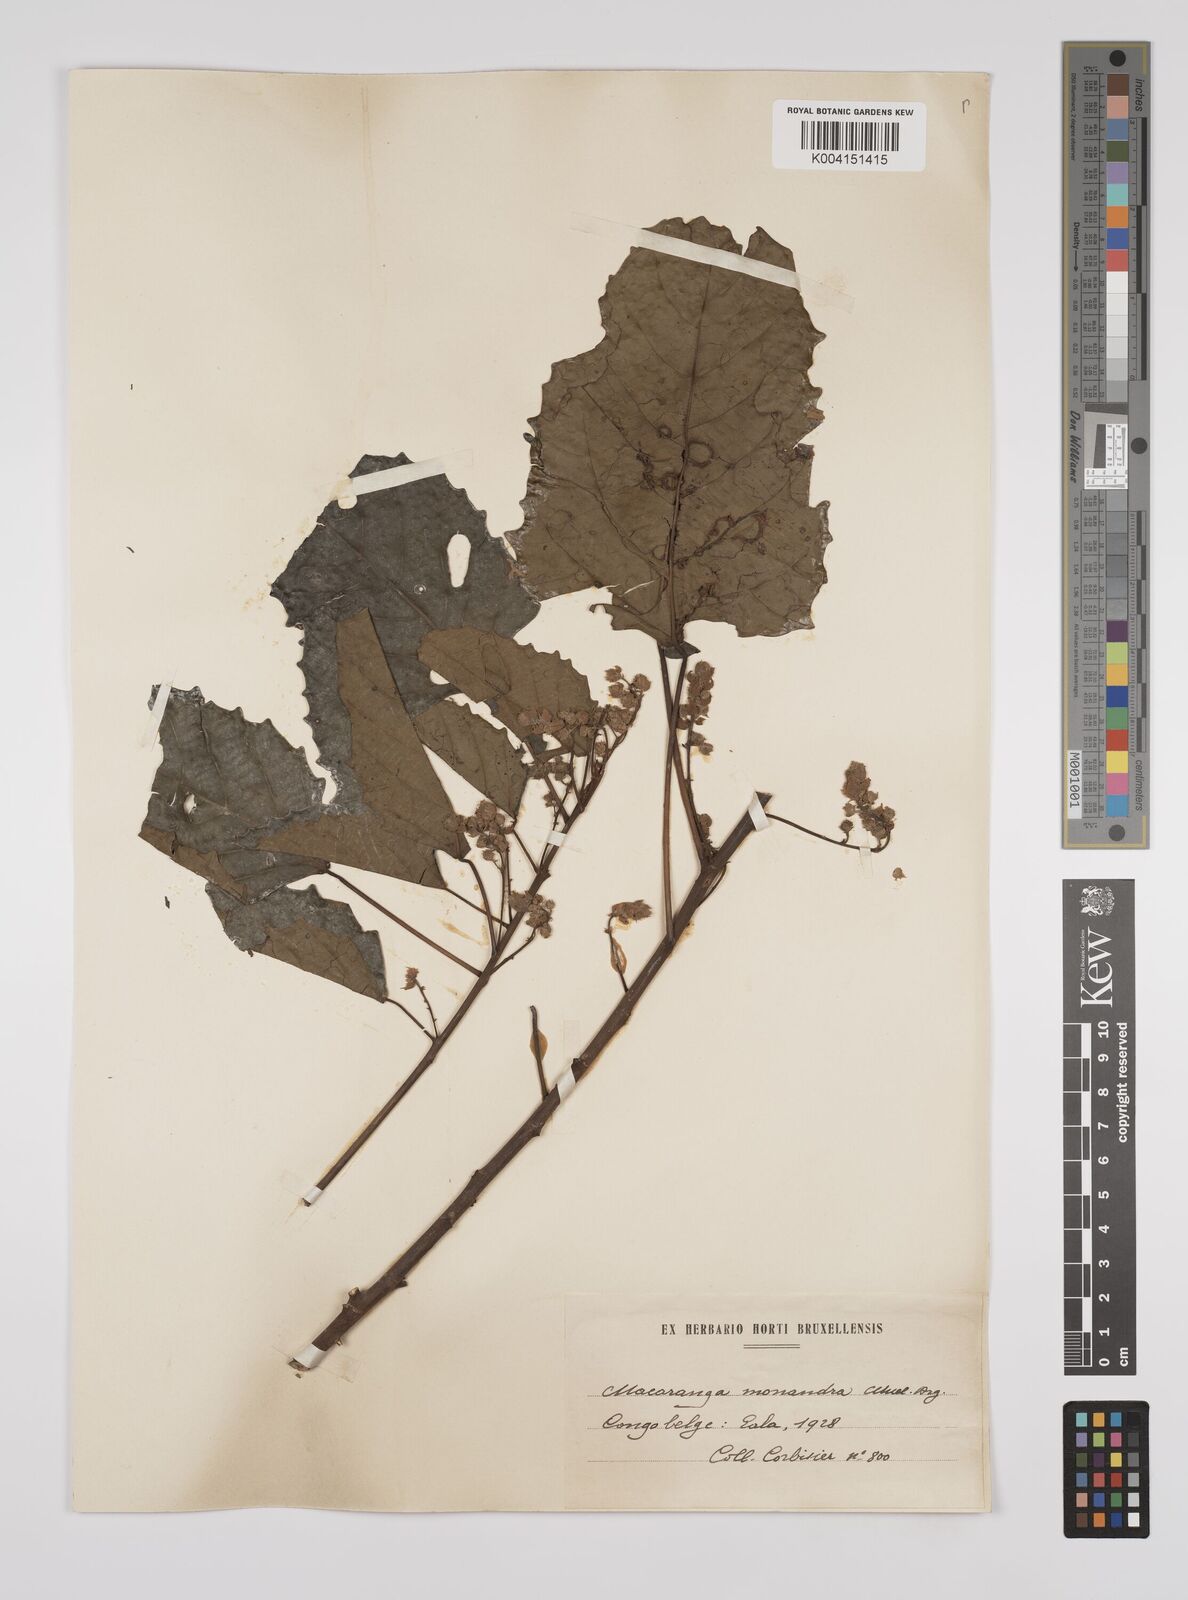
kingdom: Plantae
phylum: Tracheophyta
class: Magnoliopsida
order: Malpighiales
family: Euphorbiaceae
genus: Macaranga
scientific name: Macaranga monandra
